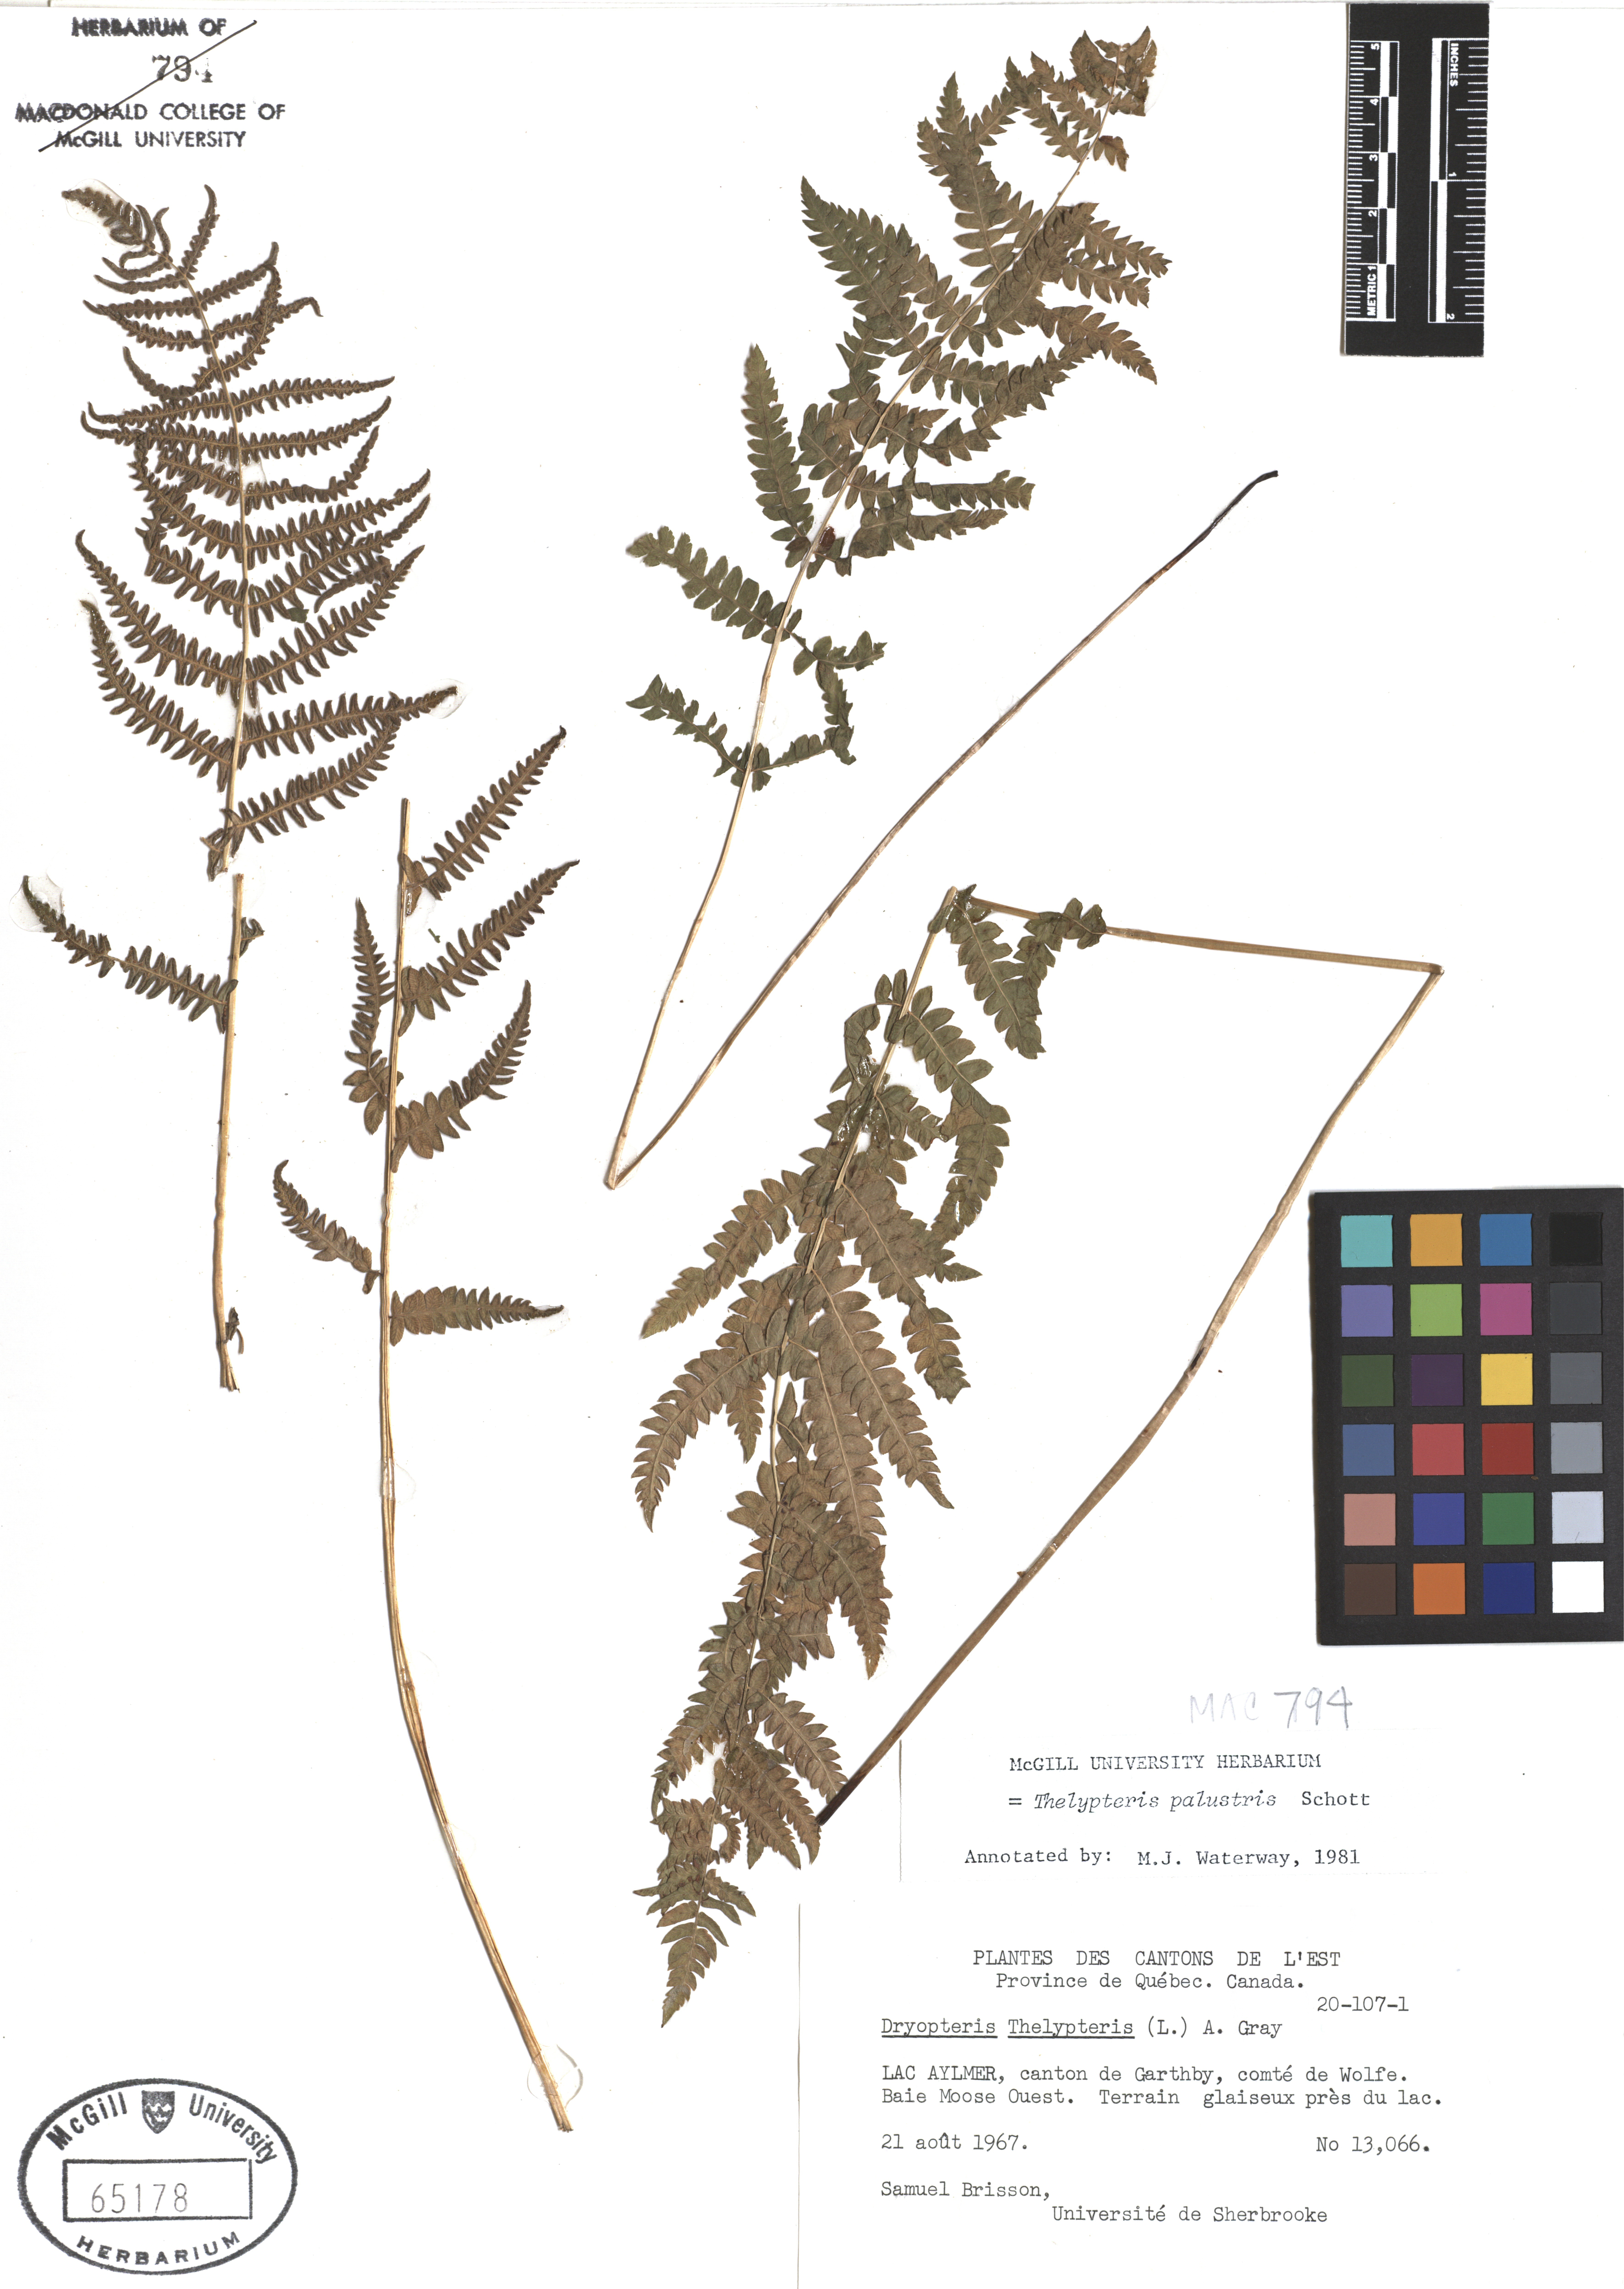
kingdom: Plantae
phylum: Tracheophyta
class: Polypodiopsida
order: Polypodiales
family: Thelypteridaceae
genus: Thelypteris
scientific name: Thelypteris palustris
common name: Marsh fern
